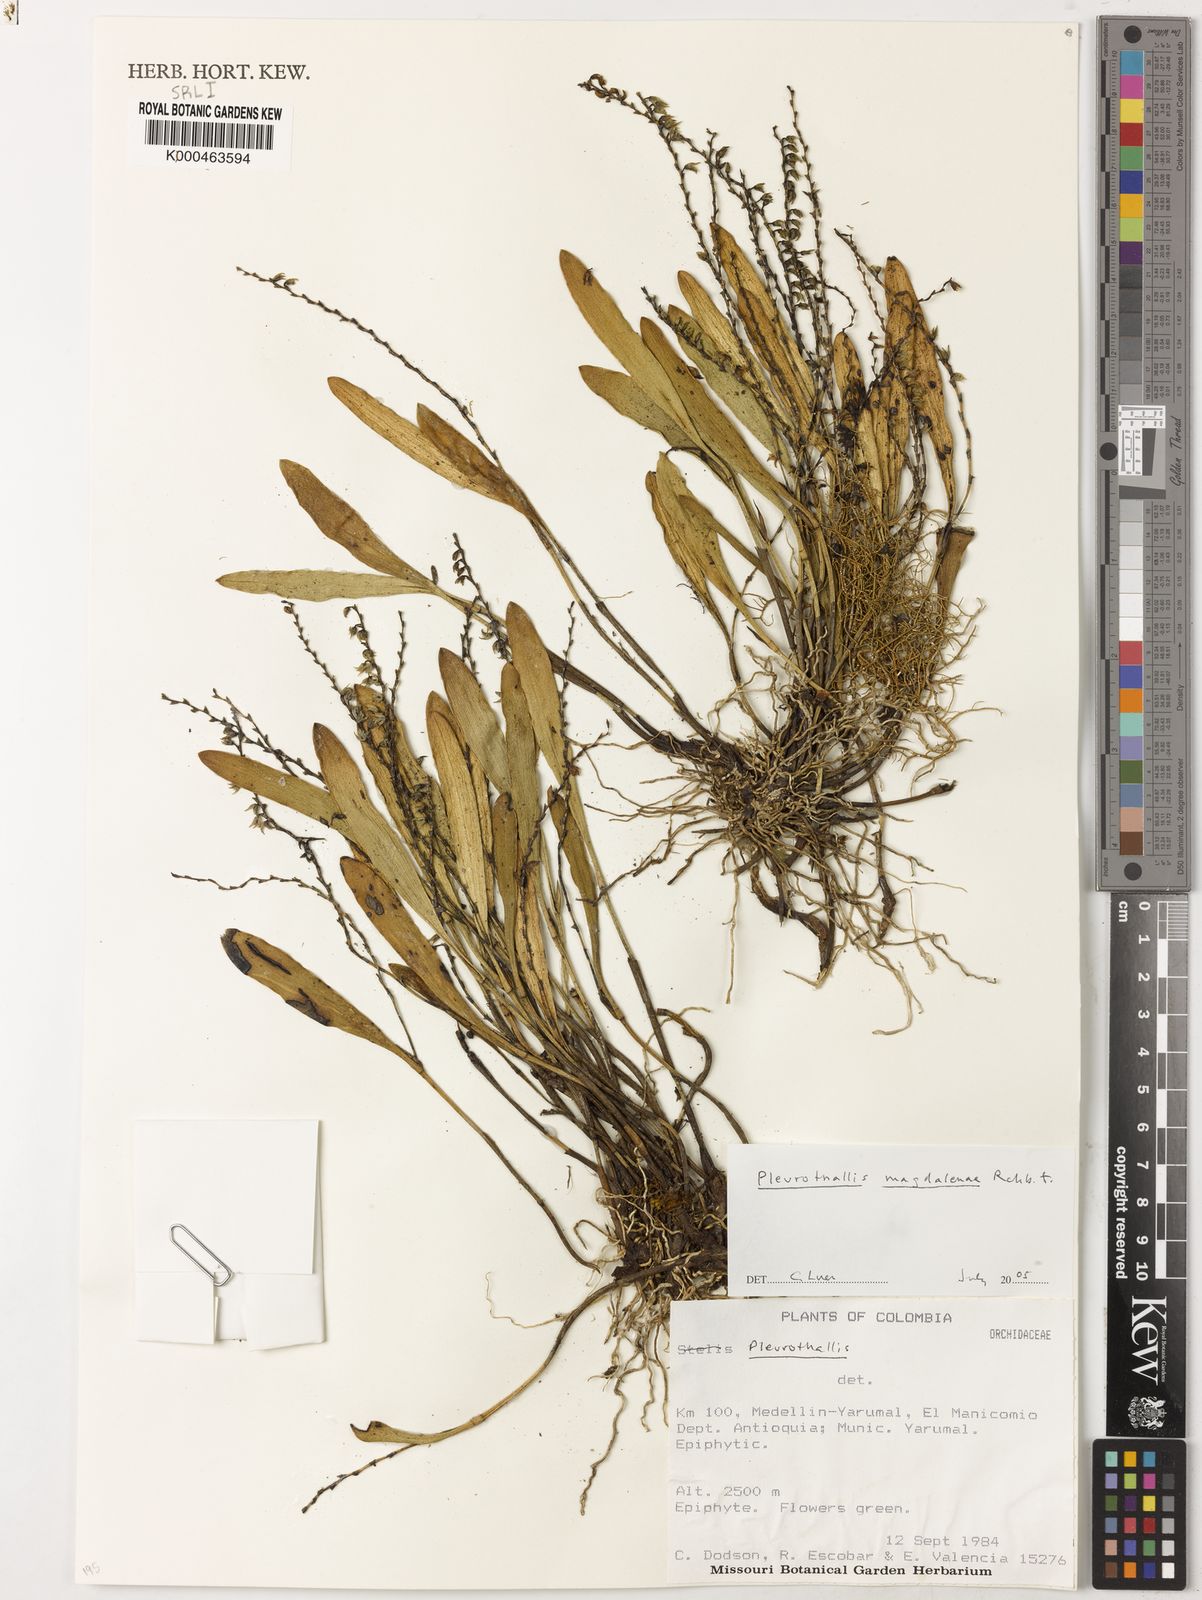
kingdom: Plantae
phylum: Tracheophyta
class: Liliopsida
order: Asparagales
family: Orchidaceae
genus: Stelis
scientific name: Stelis magdalenae
